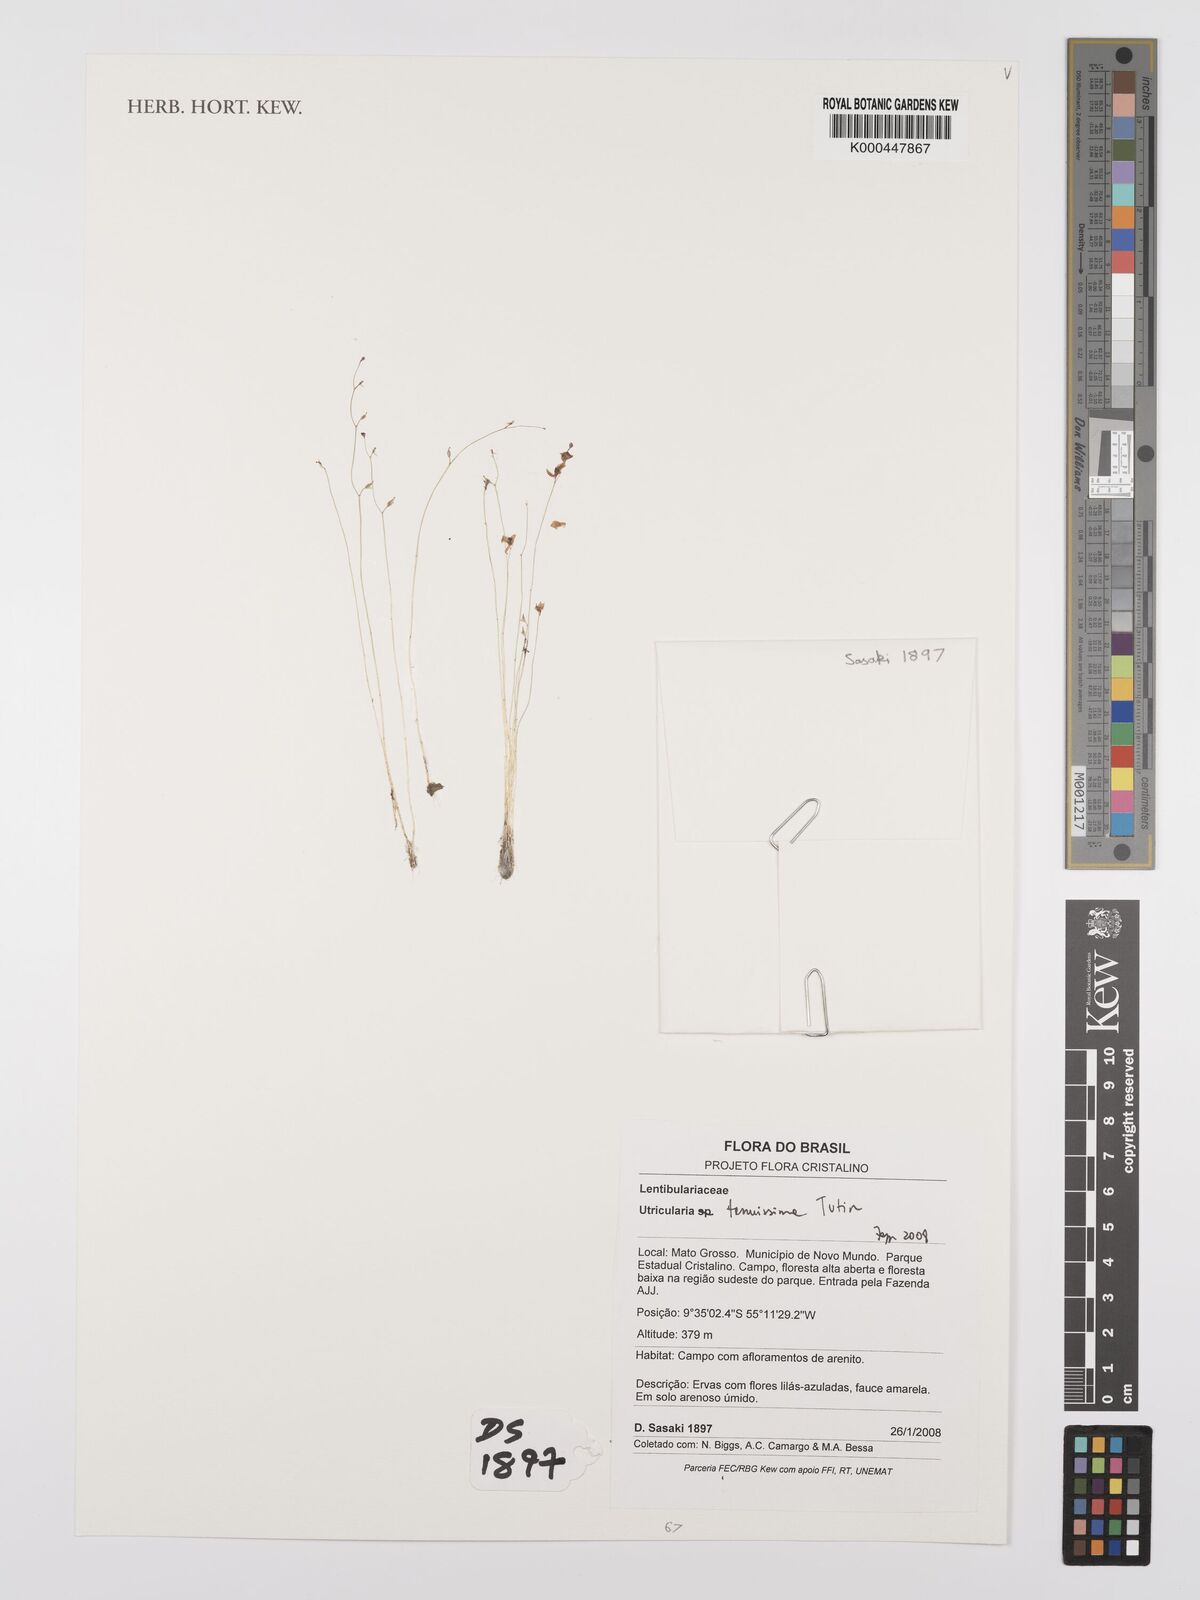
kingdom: Plantae
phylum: Tracheophyta
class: Magnoliopsida
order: Lamiales
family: Lentibulariaceae
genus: Utricularia
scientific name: Utricularia tenuissima
